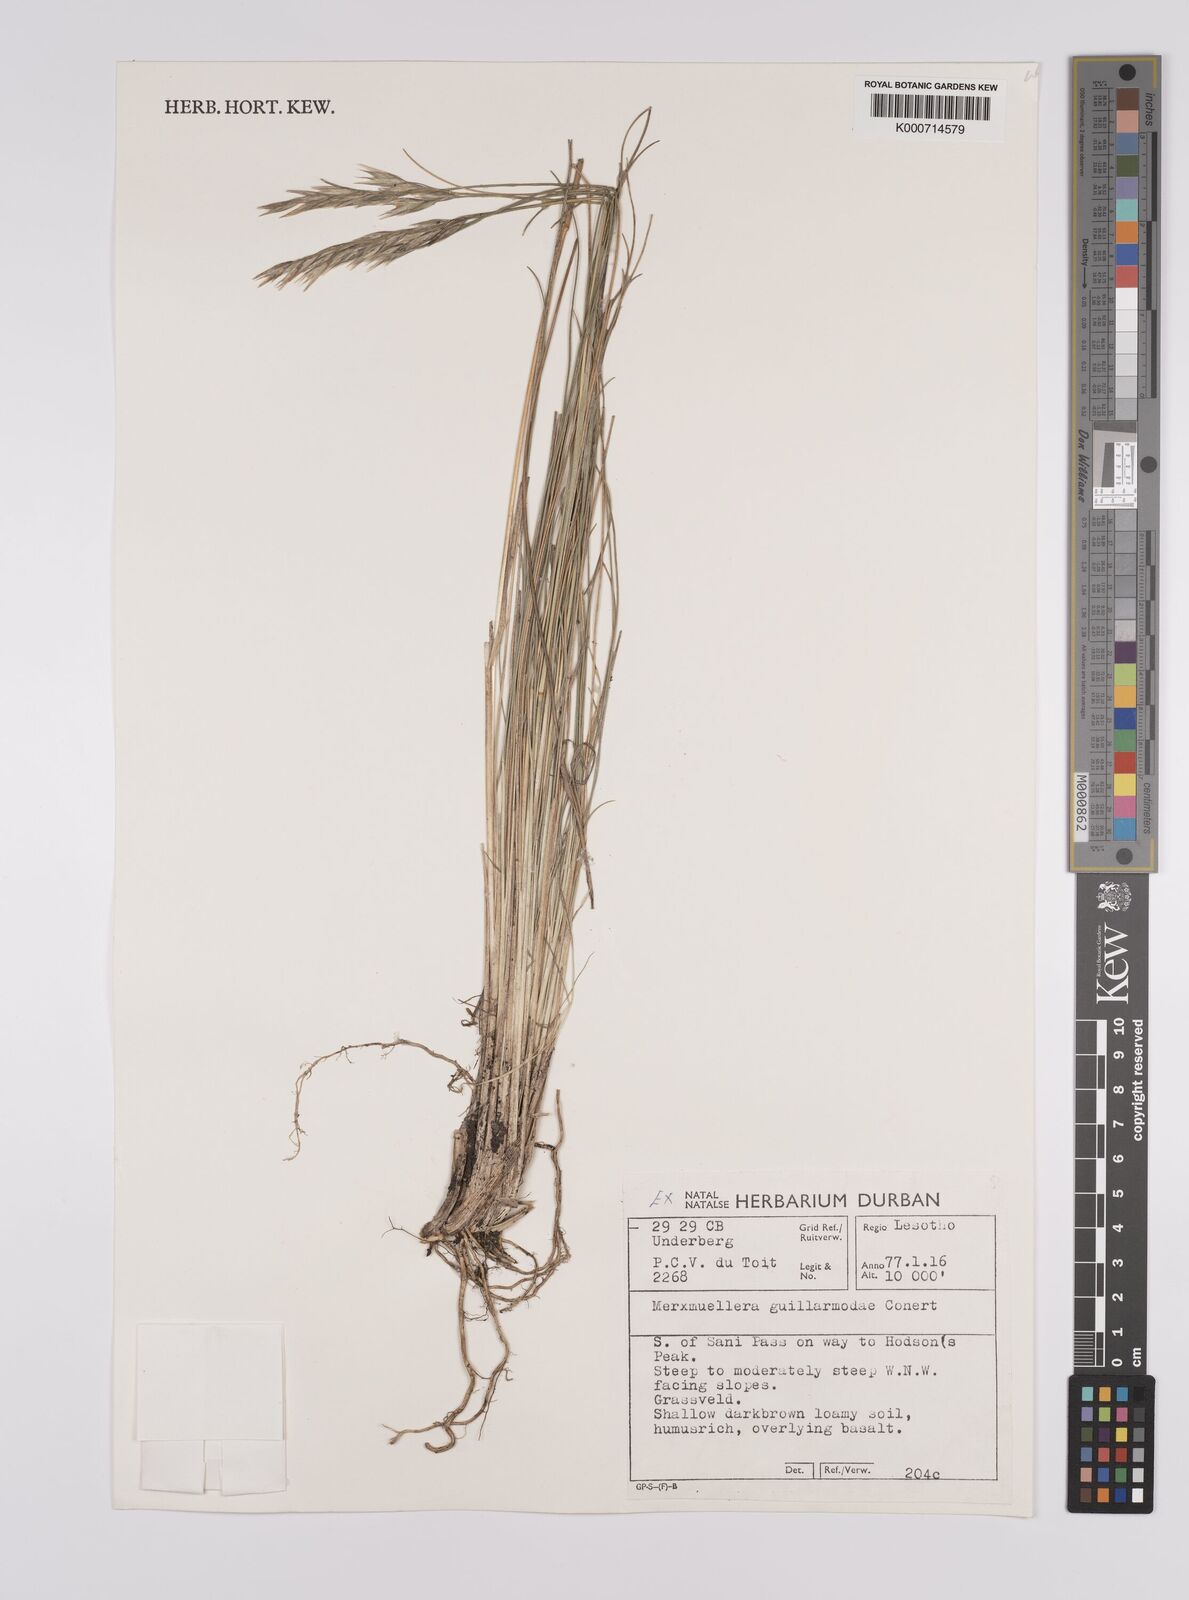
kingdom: Plantae
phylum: Tracheophyta
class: Liliopsida
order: Poales
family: Poaceae
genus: Rytidosperma
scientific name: Rytidosperma
